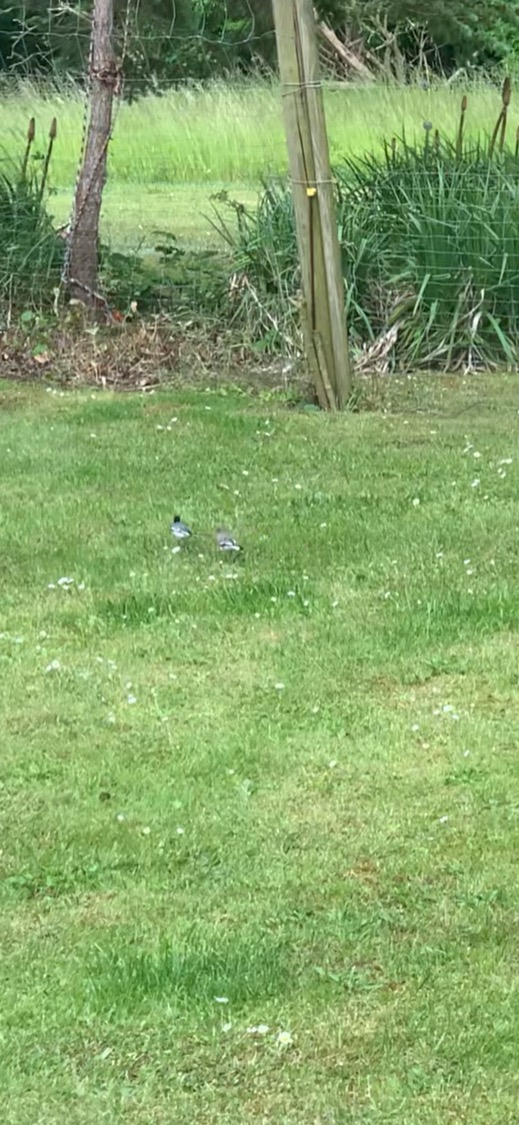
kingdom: Animalia
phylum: Chordata
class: Aves
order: Passeriformes
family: Motacillidae
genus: Motacilla
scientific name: Motacilla alba
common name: Hvid vipstjert
